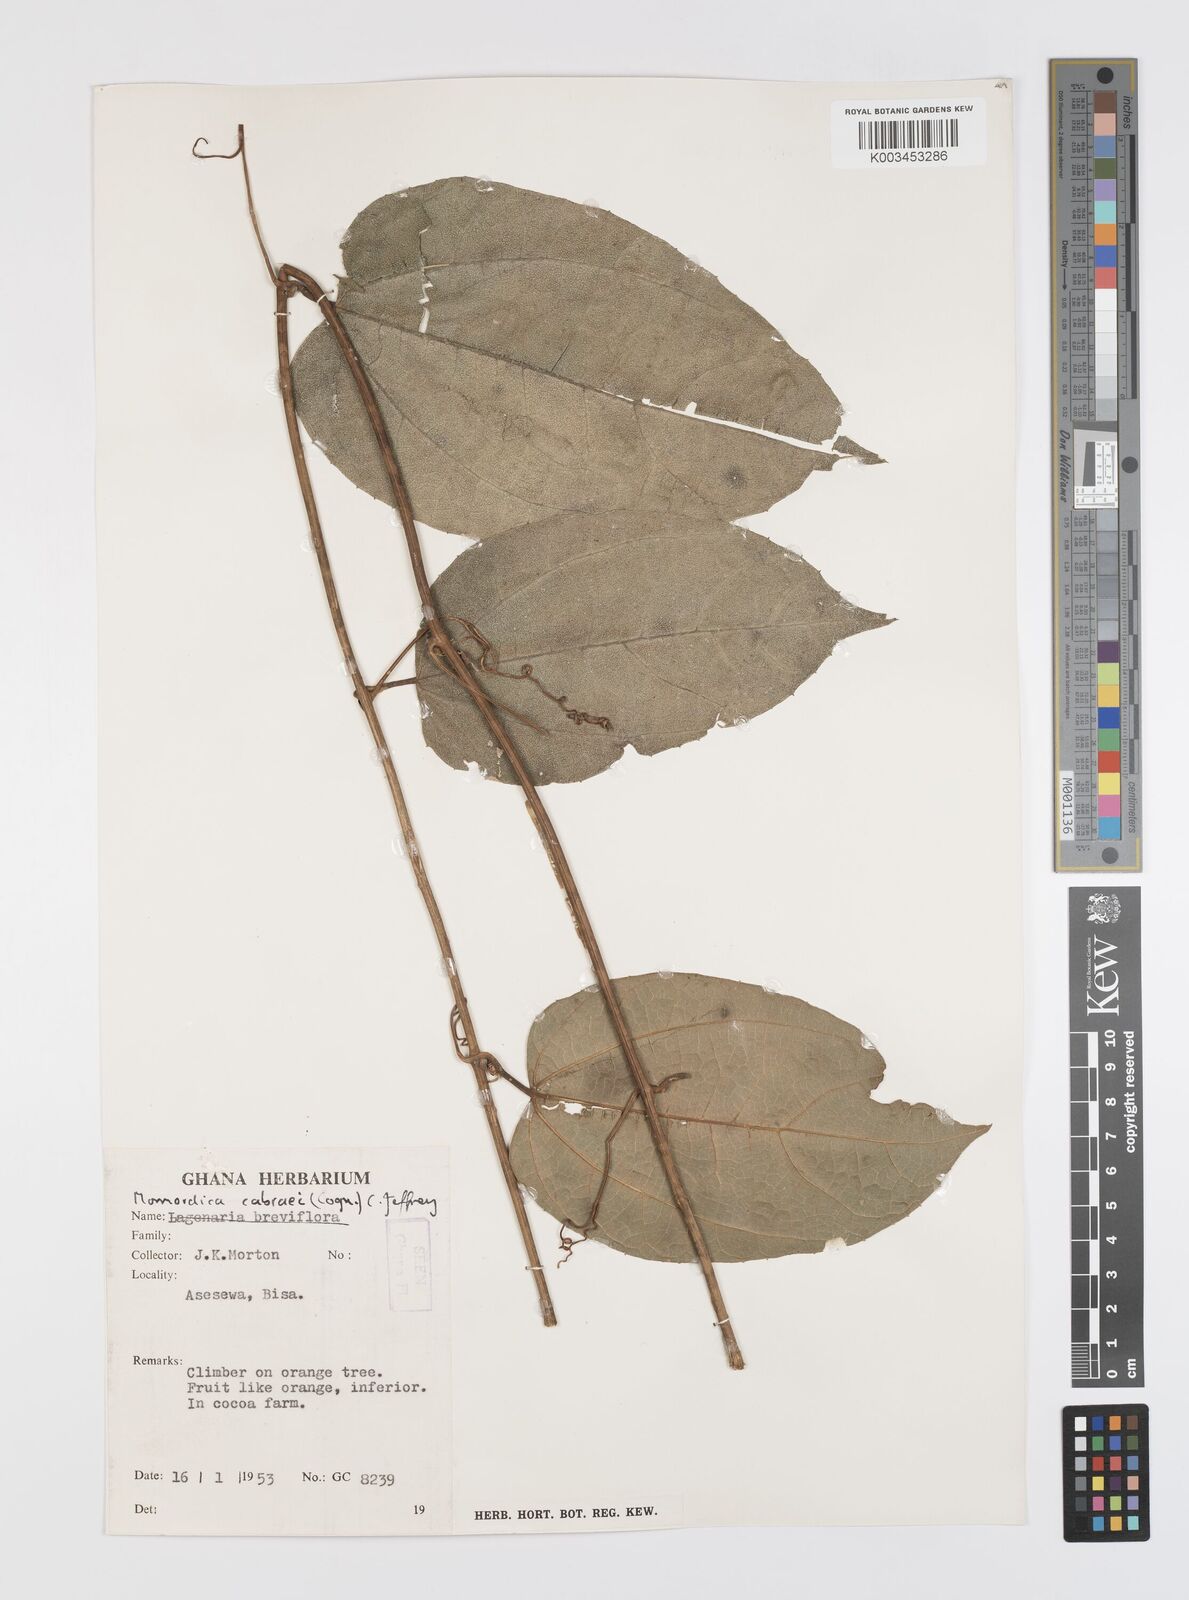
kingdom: Plantae
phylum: Tracheophyta
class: Magnoliopsida
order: Cucurbitales
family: Cucurbitaceae
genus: Momordica
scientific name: Momordica cabrae
